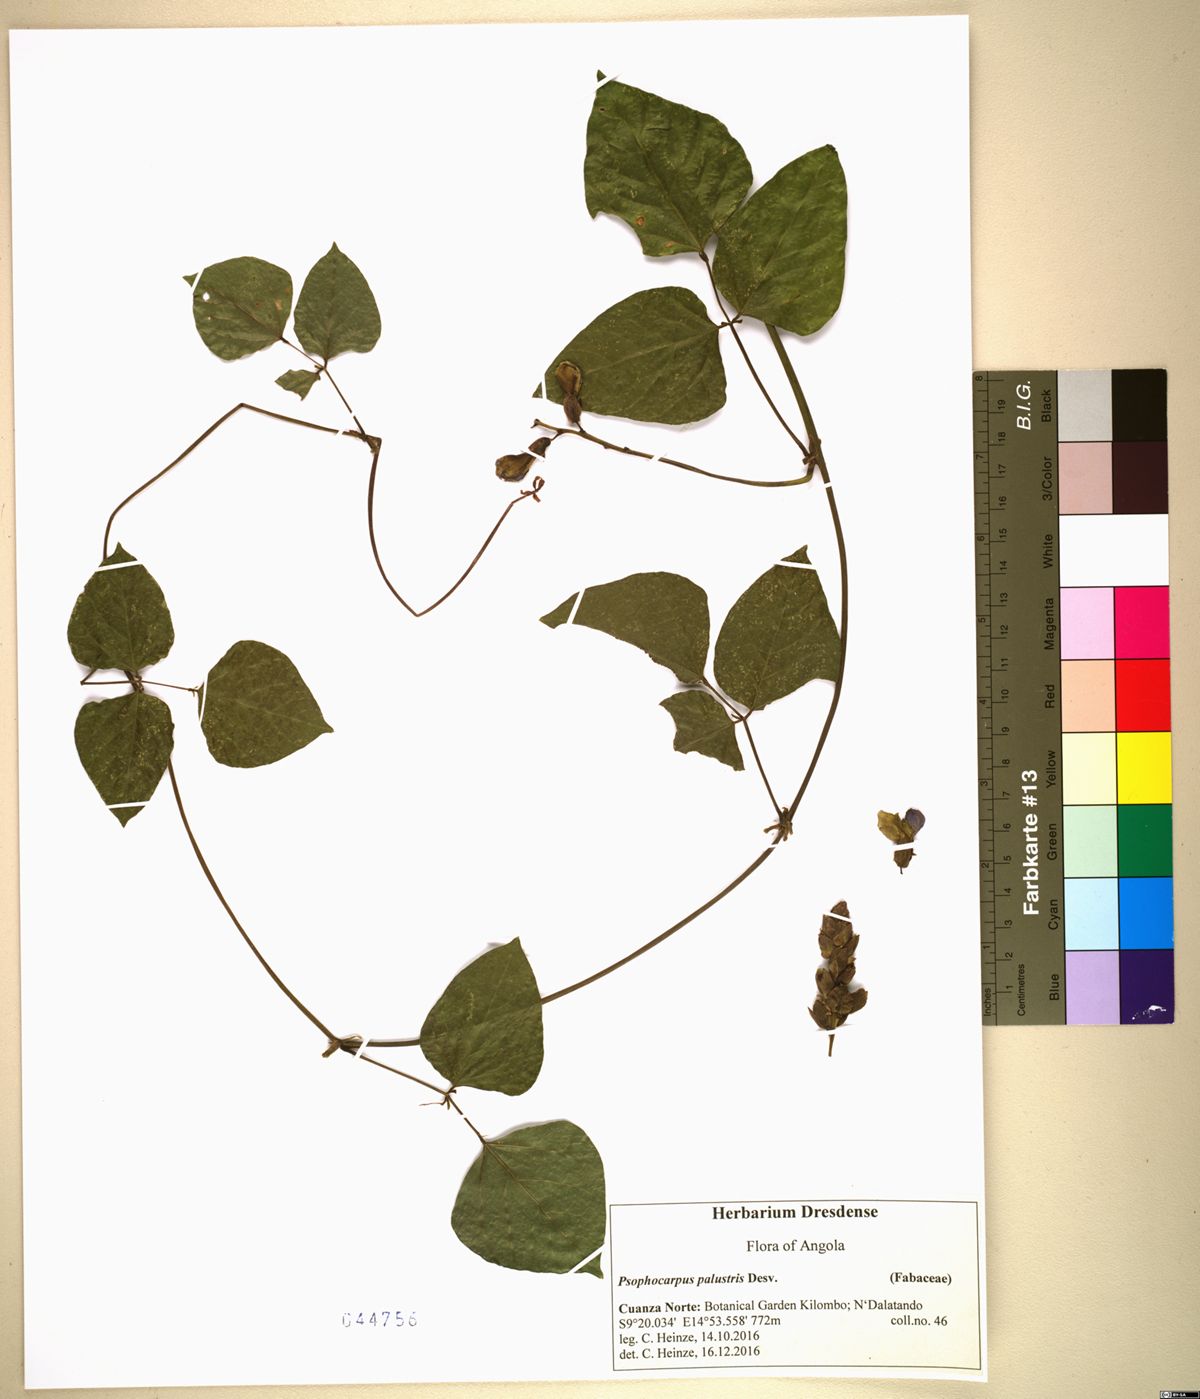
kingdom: Plantae
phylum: Tracheophyta
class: Magnoliopsida
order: Fabales
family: Fabaceae
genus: Psophocarpus
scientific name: Psophocarpus palustris
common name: African winged-bean
